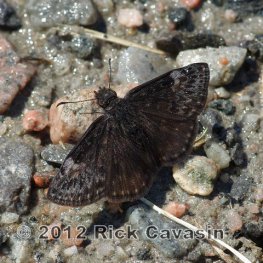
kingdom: Animalia
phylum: Arthropoda
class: Insecta
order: Lepidoptera
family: Hesperiidae
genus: Gesta
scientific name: Gesta
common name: Columbine Duskywing
